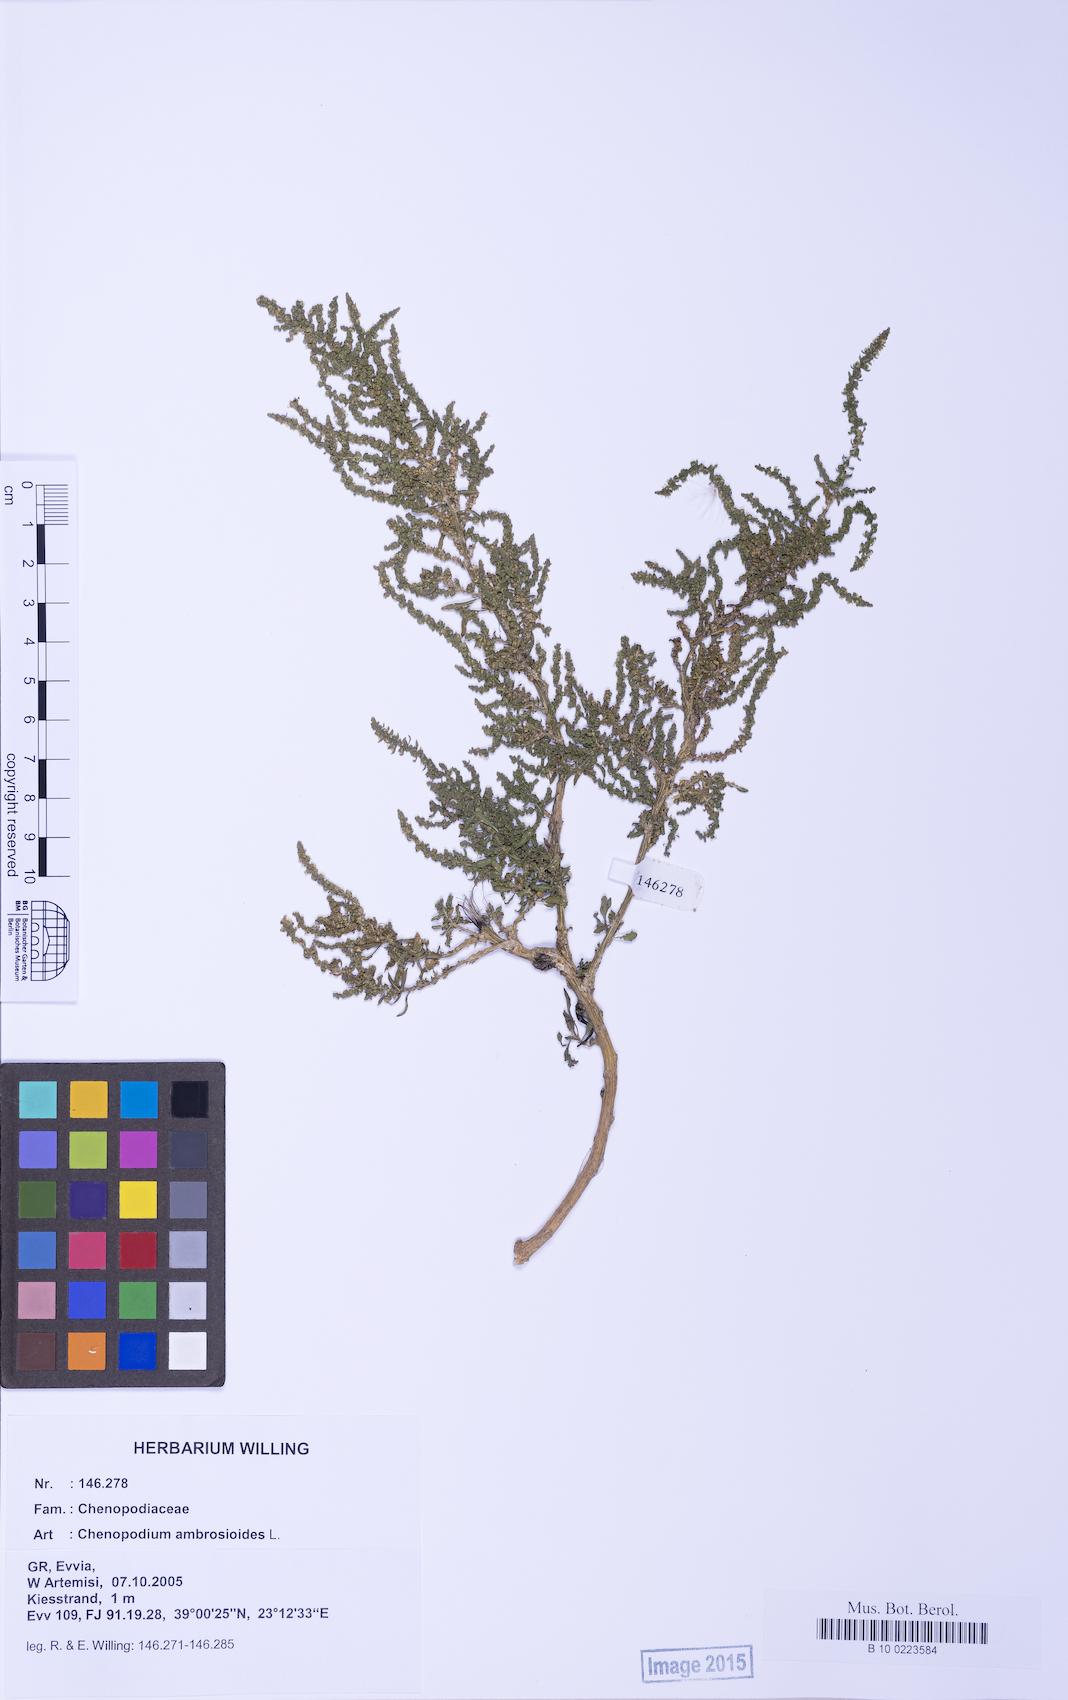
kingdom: Plantae
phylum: Tracheophyta
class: Magnoliopsida
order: Caryophyllales
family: Amaranthaceae
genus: Dysphania
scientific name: Dysphania ambrosioides
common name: Wormseed
